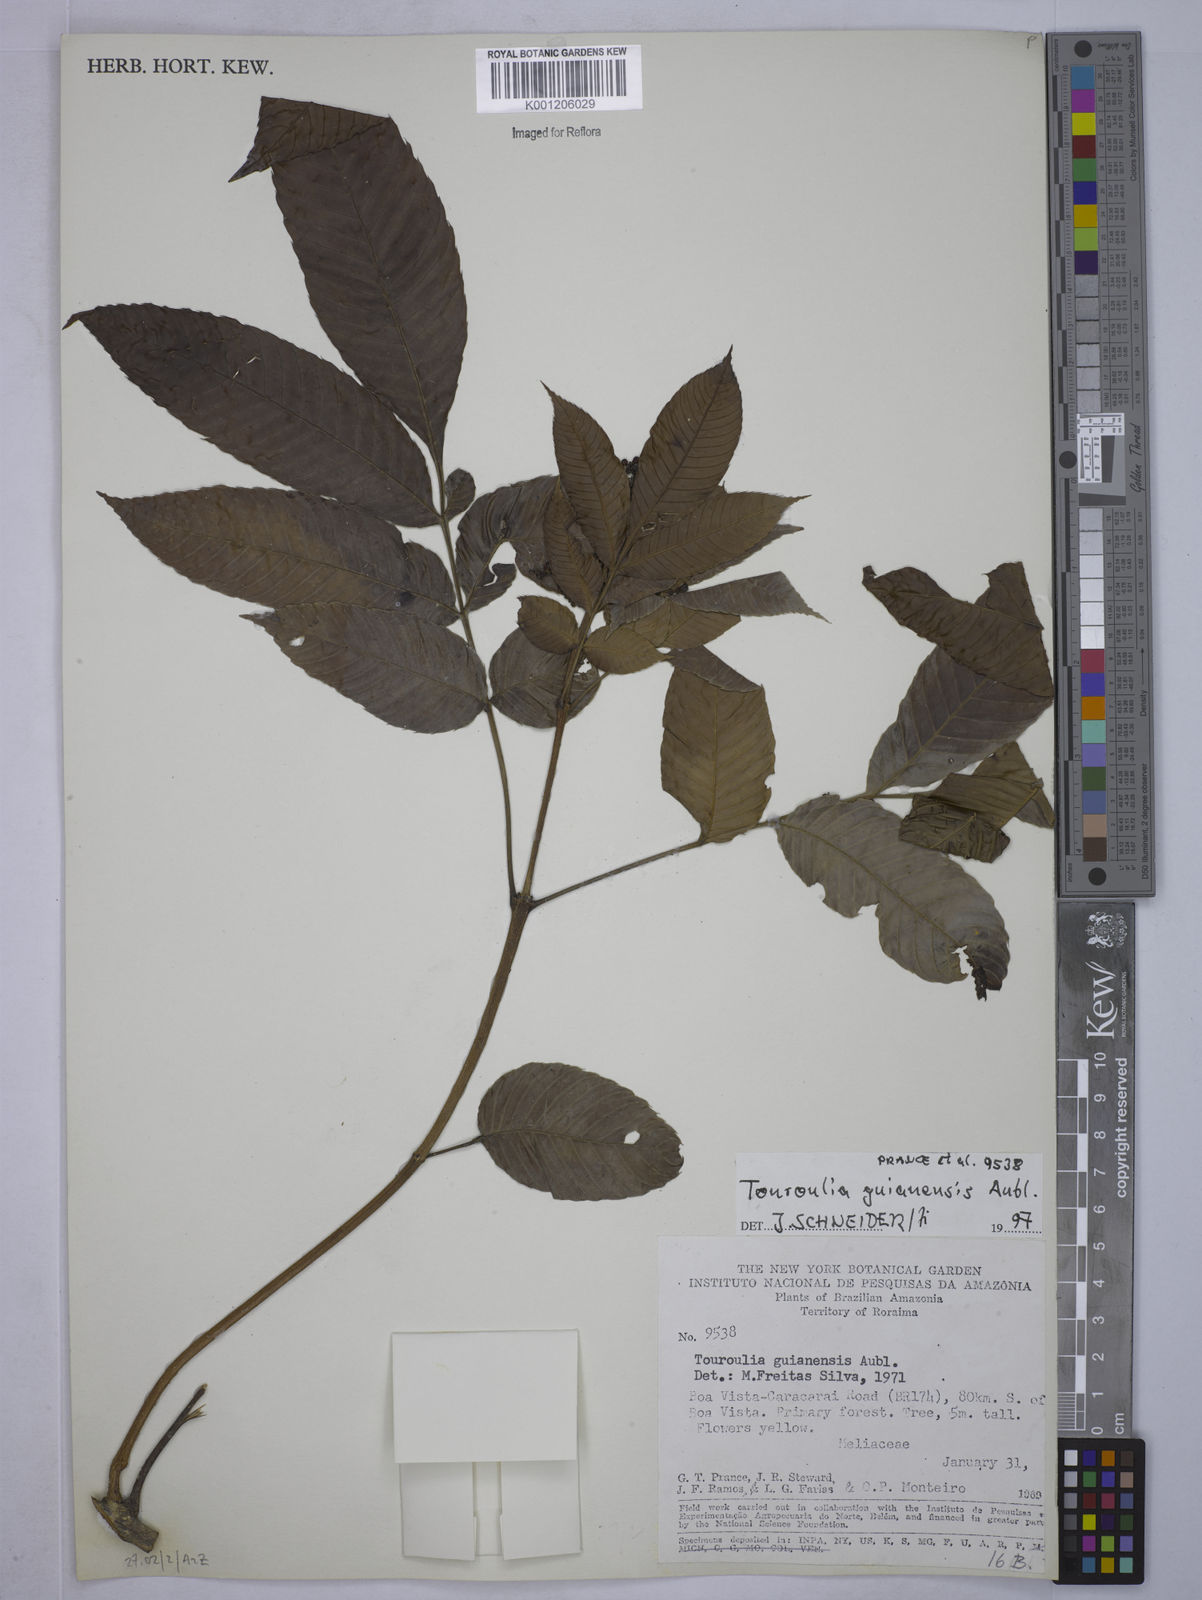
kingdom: Plantae
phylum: Tracheophyta
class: Magnoliopsida
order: Malpighiales
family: Quiinaceae
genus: Touroulia
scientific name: Touroulia guianensis
